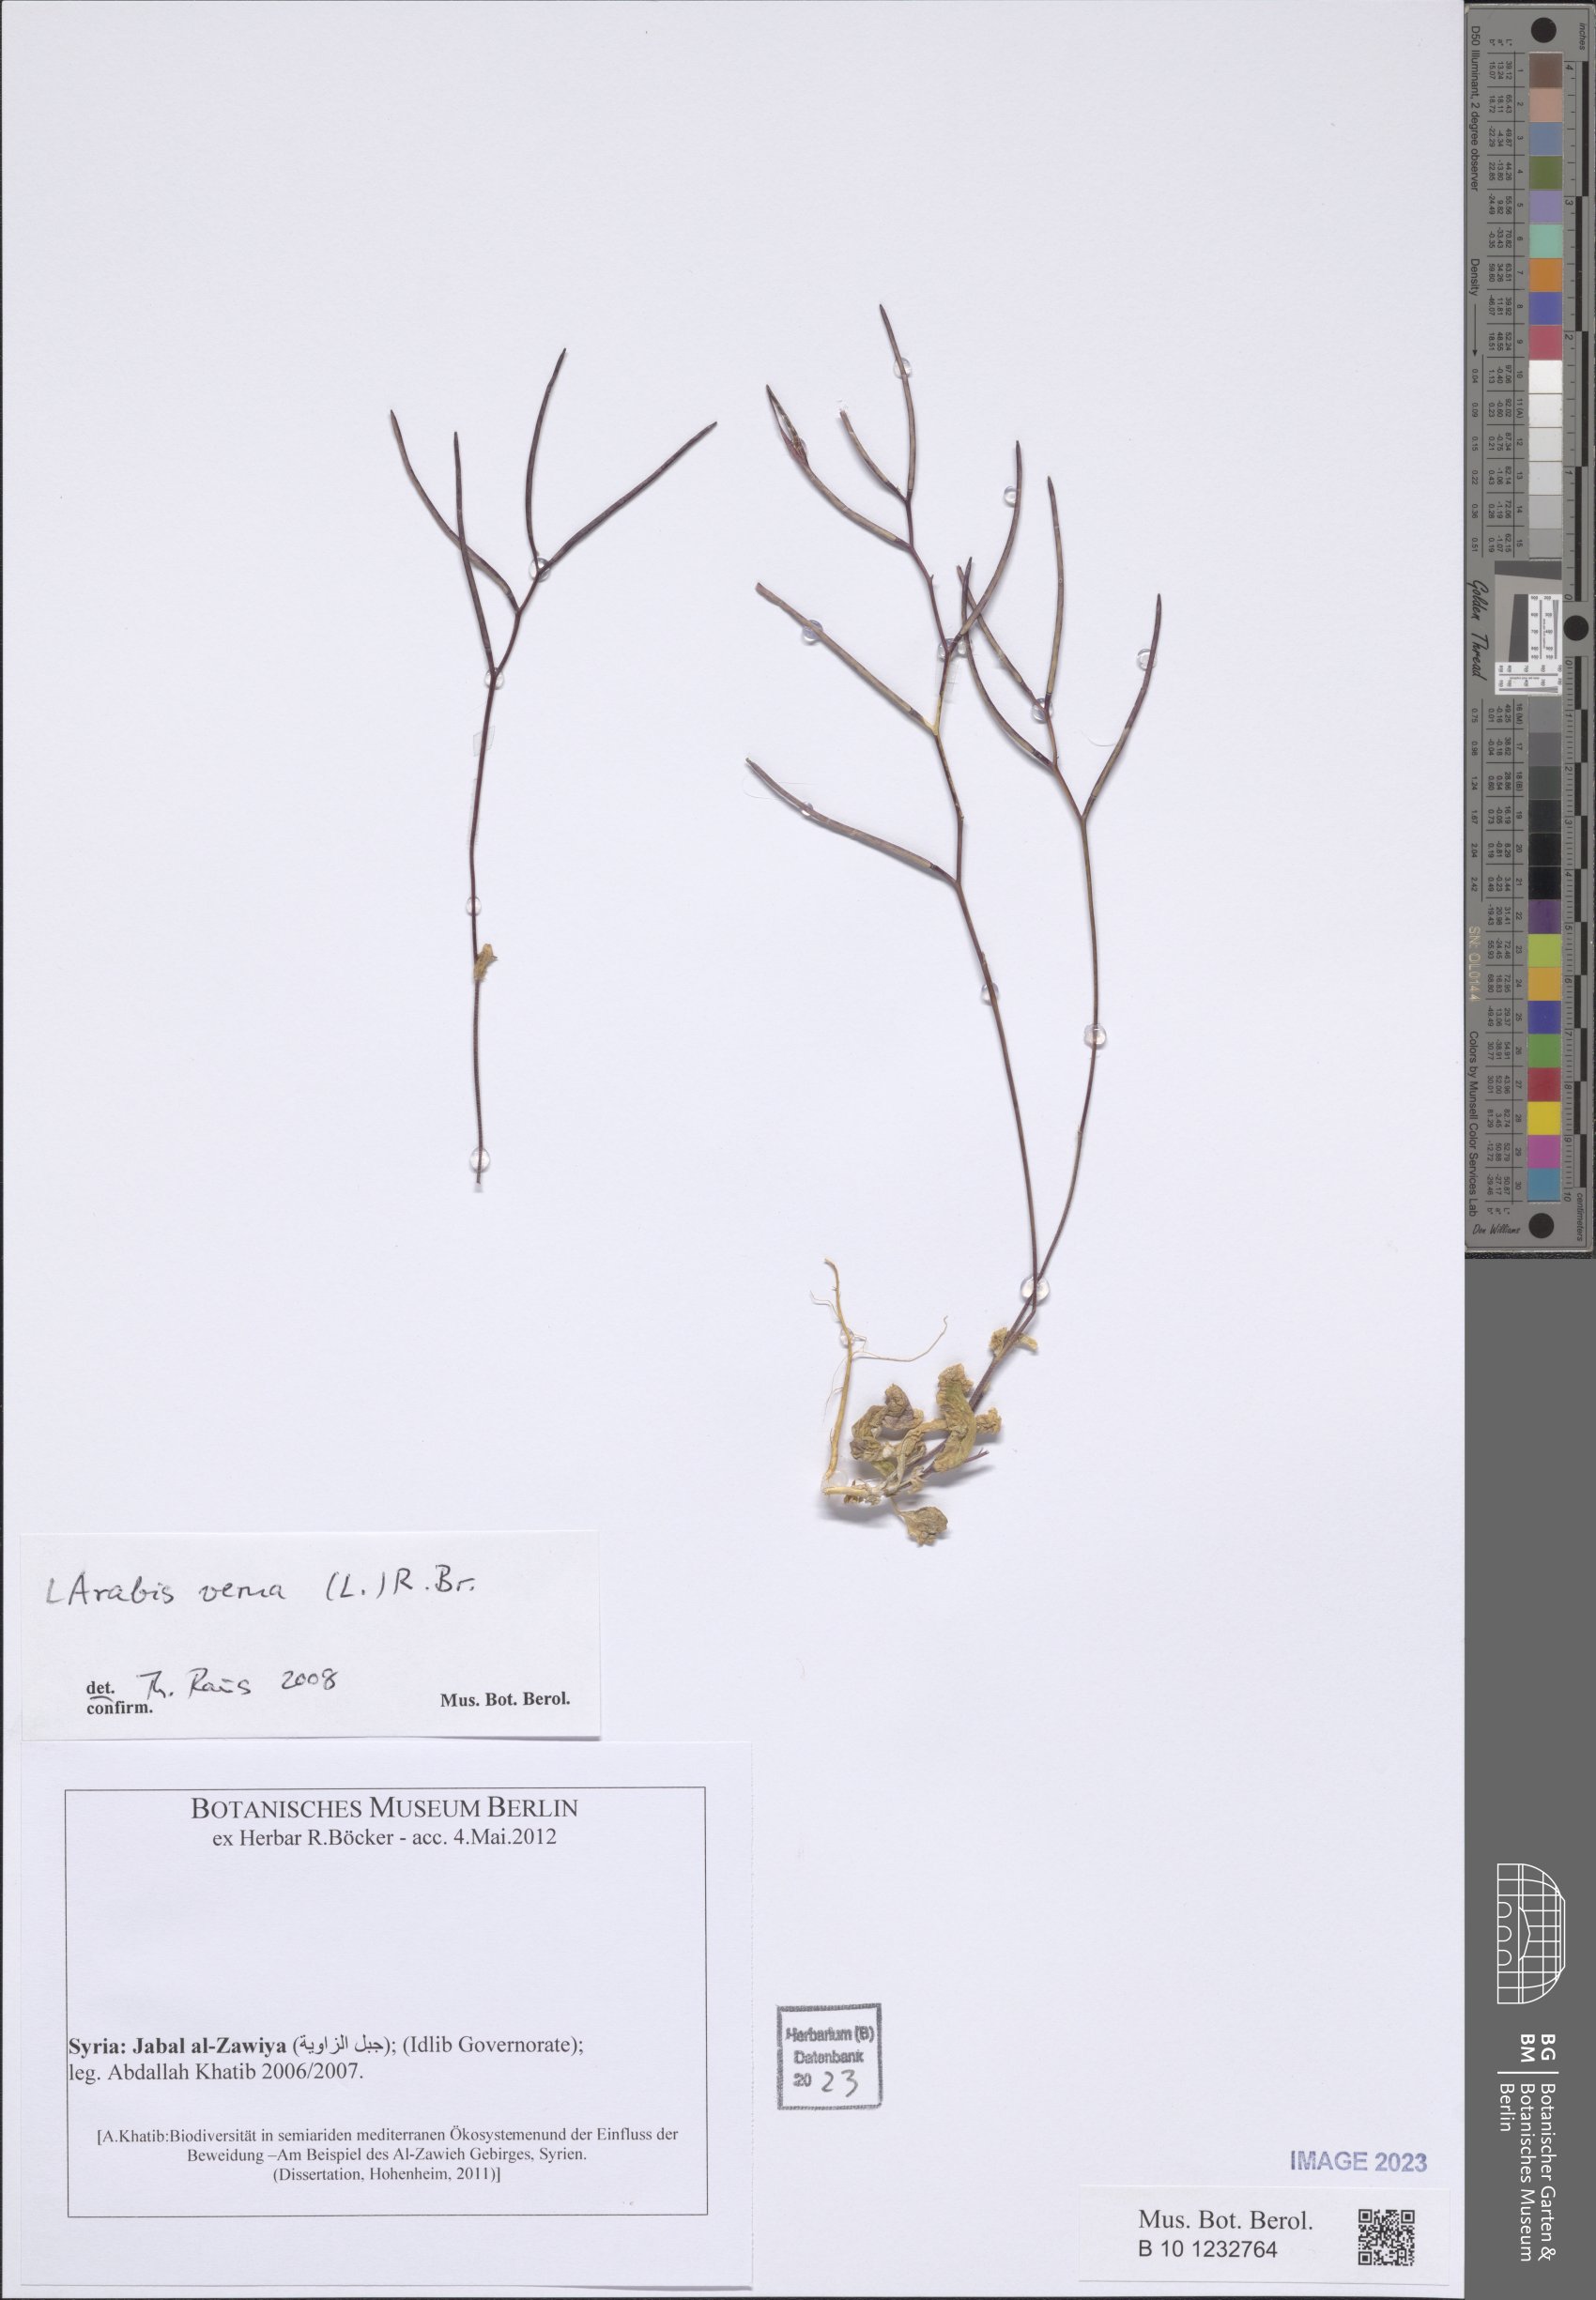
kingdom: Plantae
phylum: Tracheophyta
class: Magnoliopsida
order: Brassicales
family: Brassicaceae
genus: Arabis
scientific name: Arabis verna
